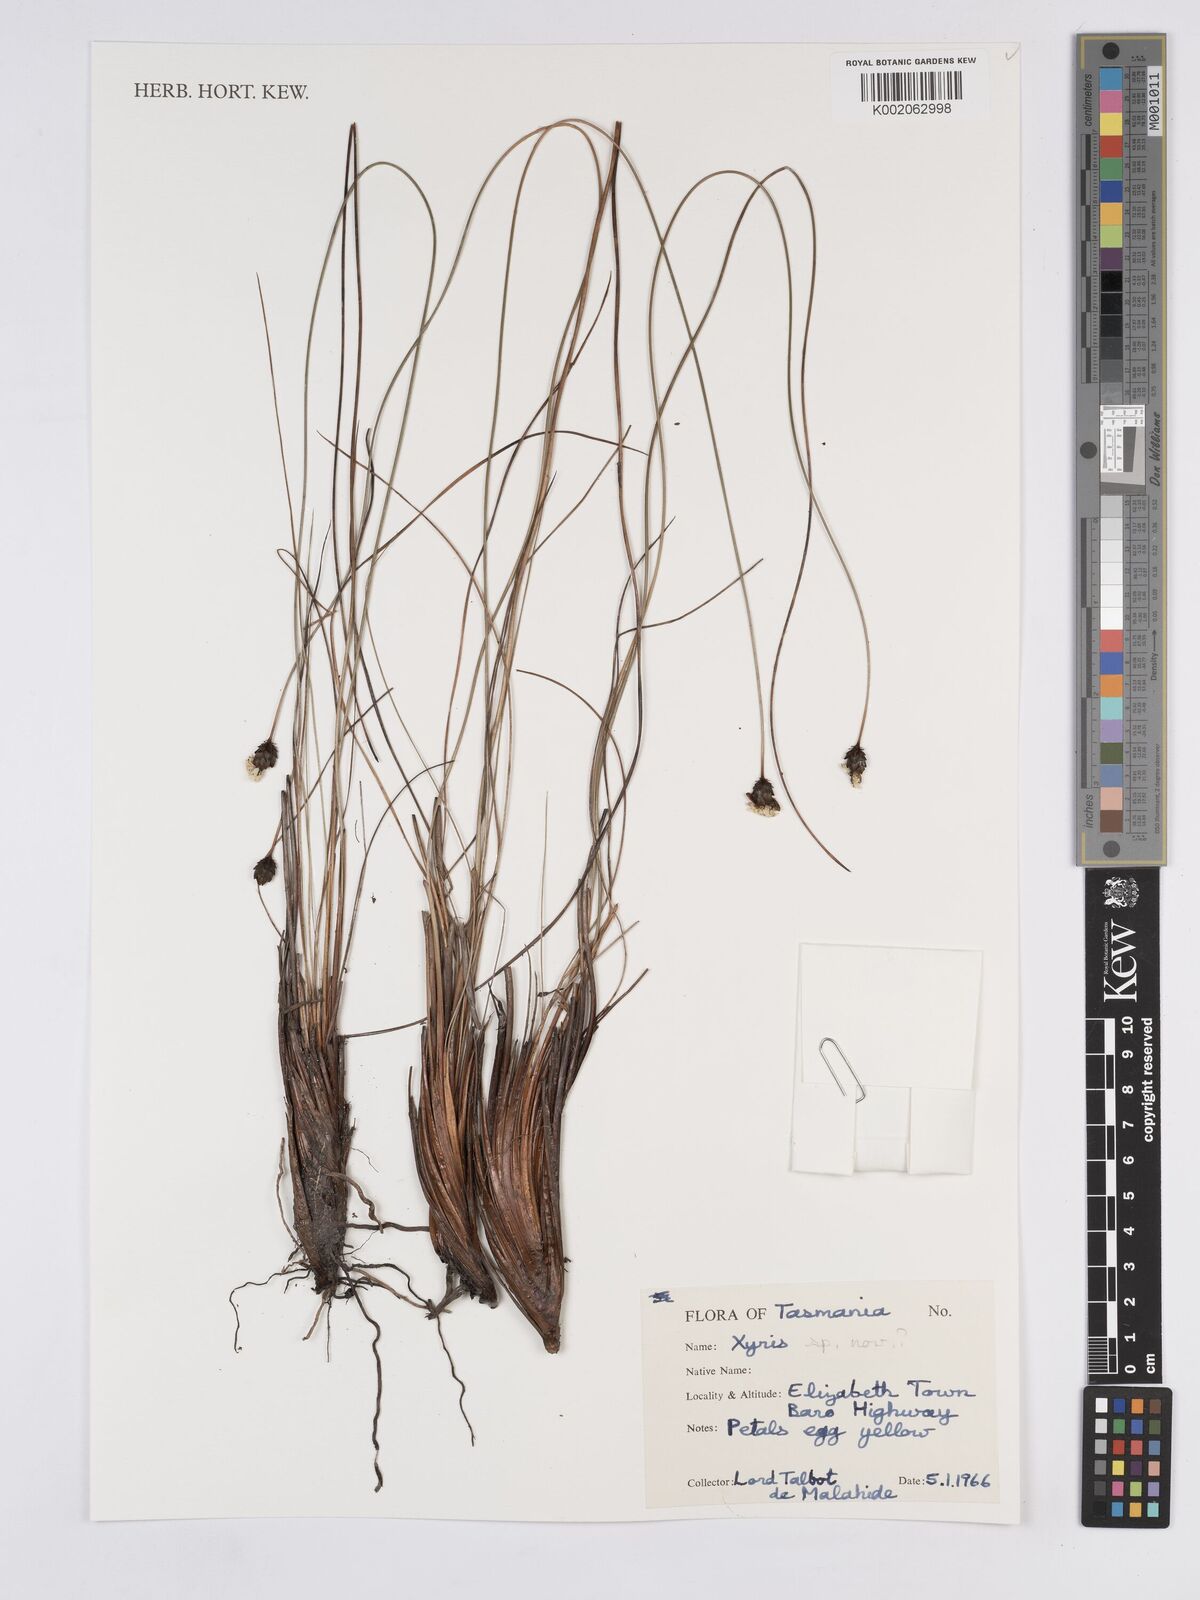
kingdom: Plantae
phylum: Tracheophyta
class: Liliopsida
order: Poales
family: Xyridaceae
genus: Xyris
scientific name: Xyris
